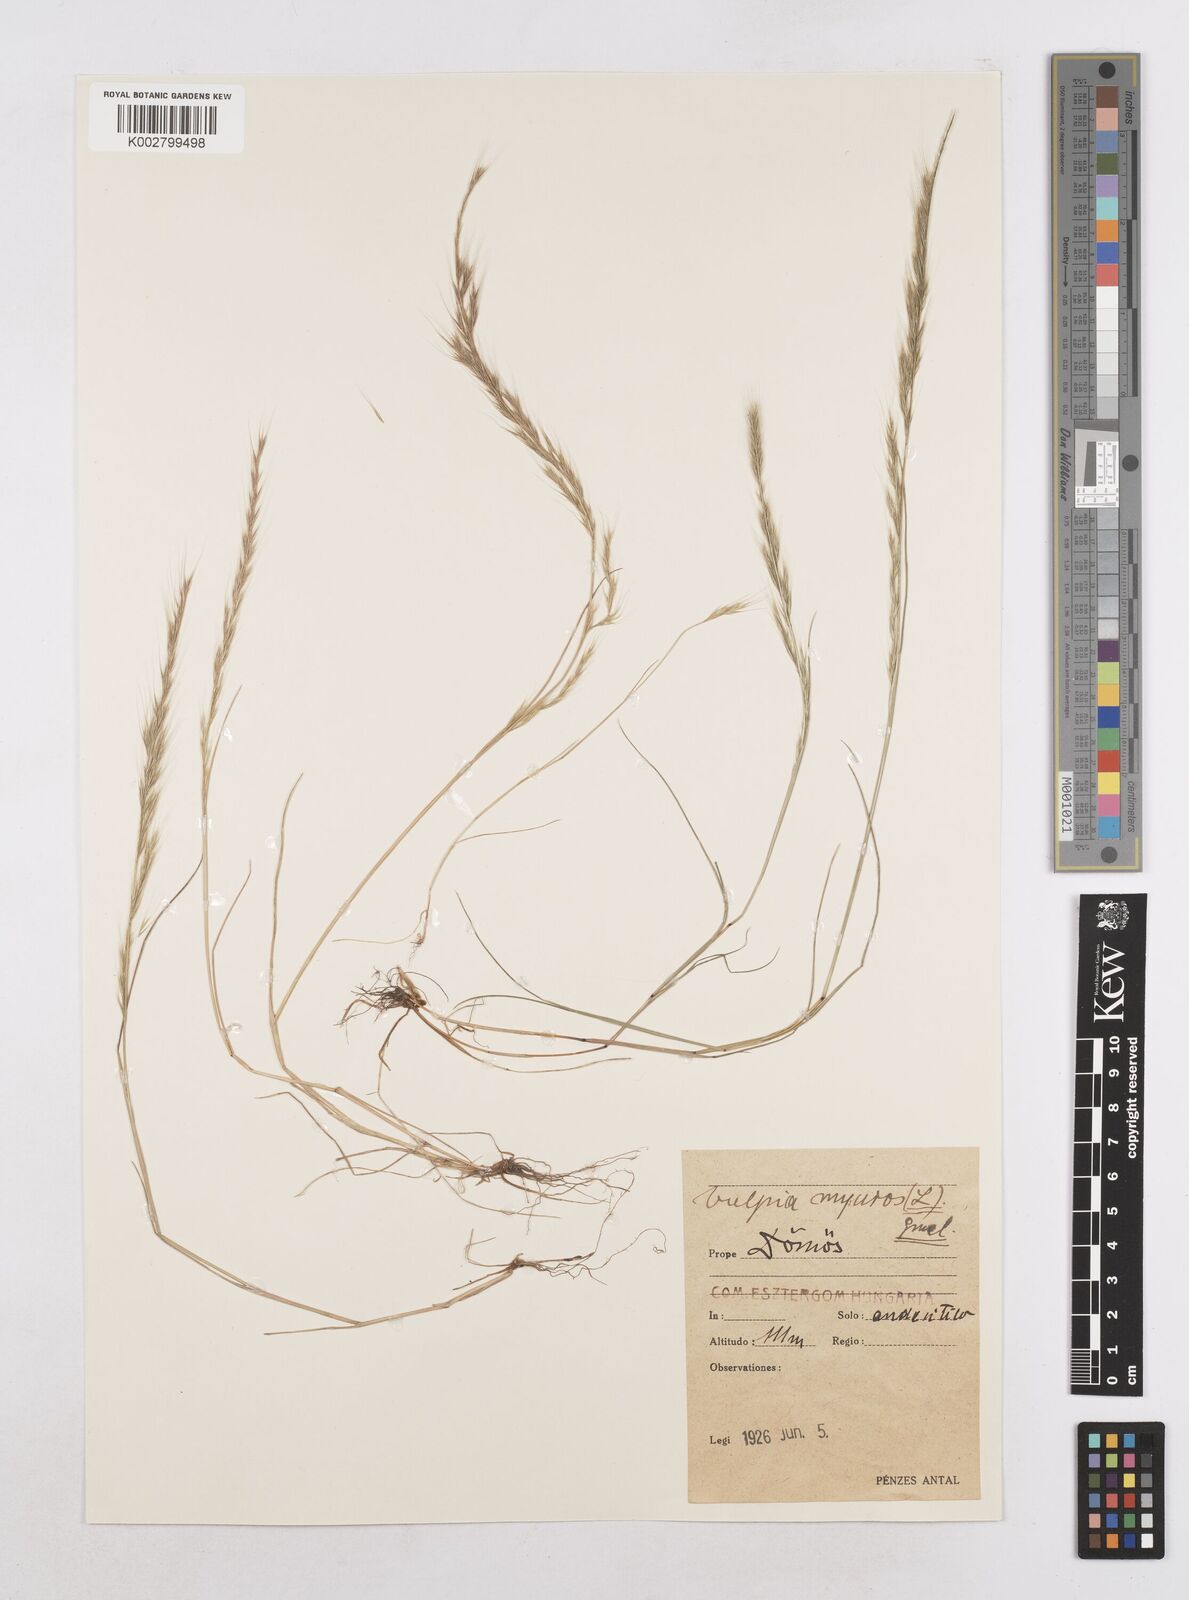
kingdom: Plantae
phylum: Tracheophyta
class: Liliopsida
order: Poales
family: Poaceae
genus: Festuca
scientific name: Festuca myuros
